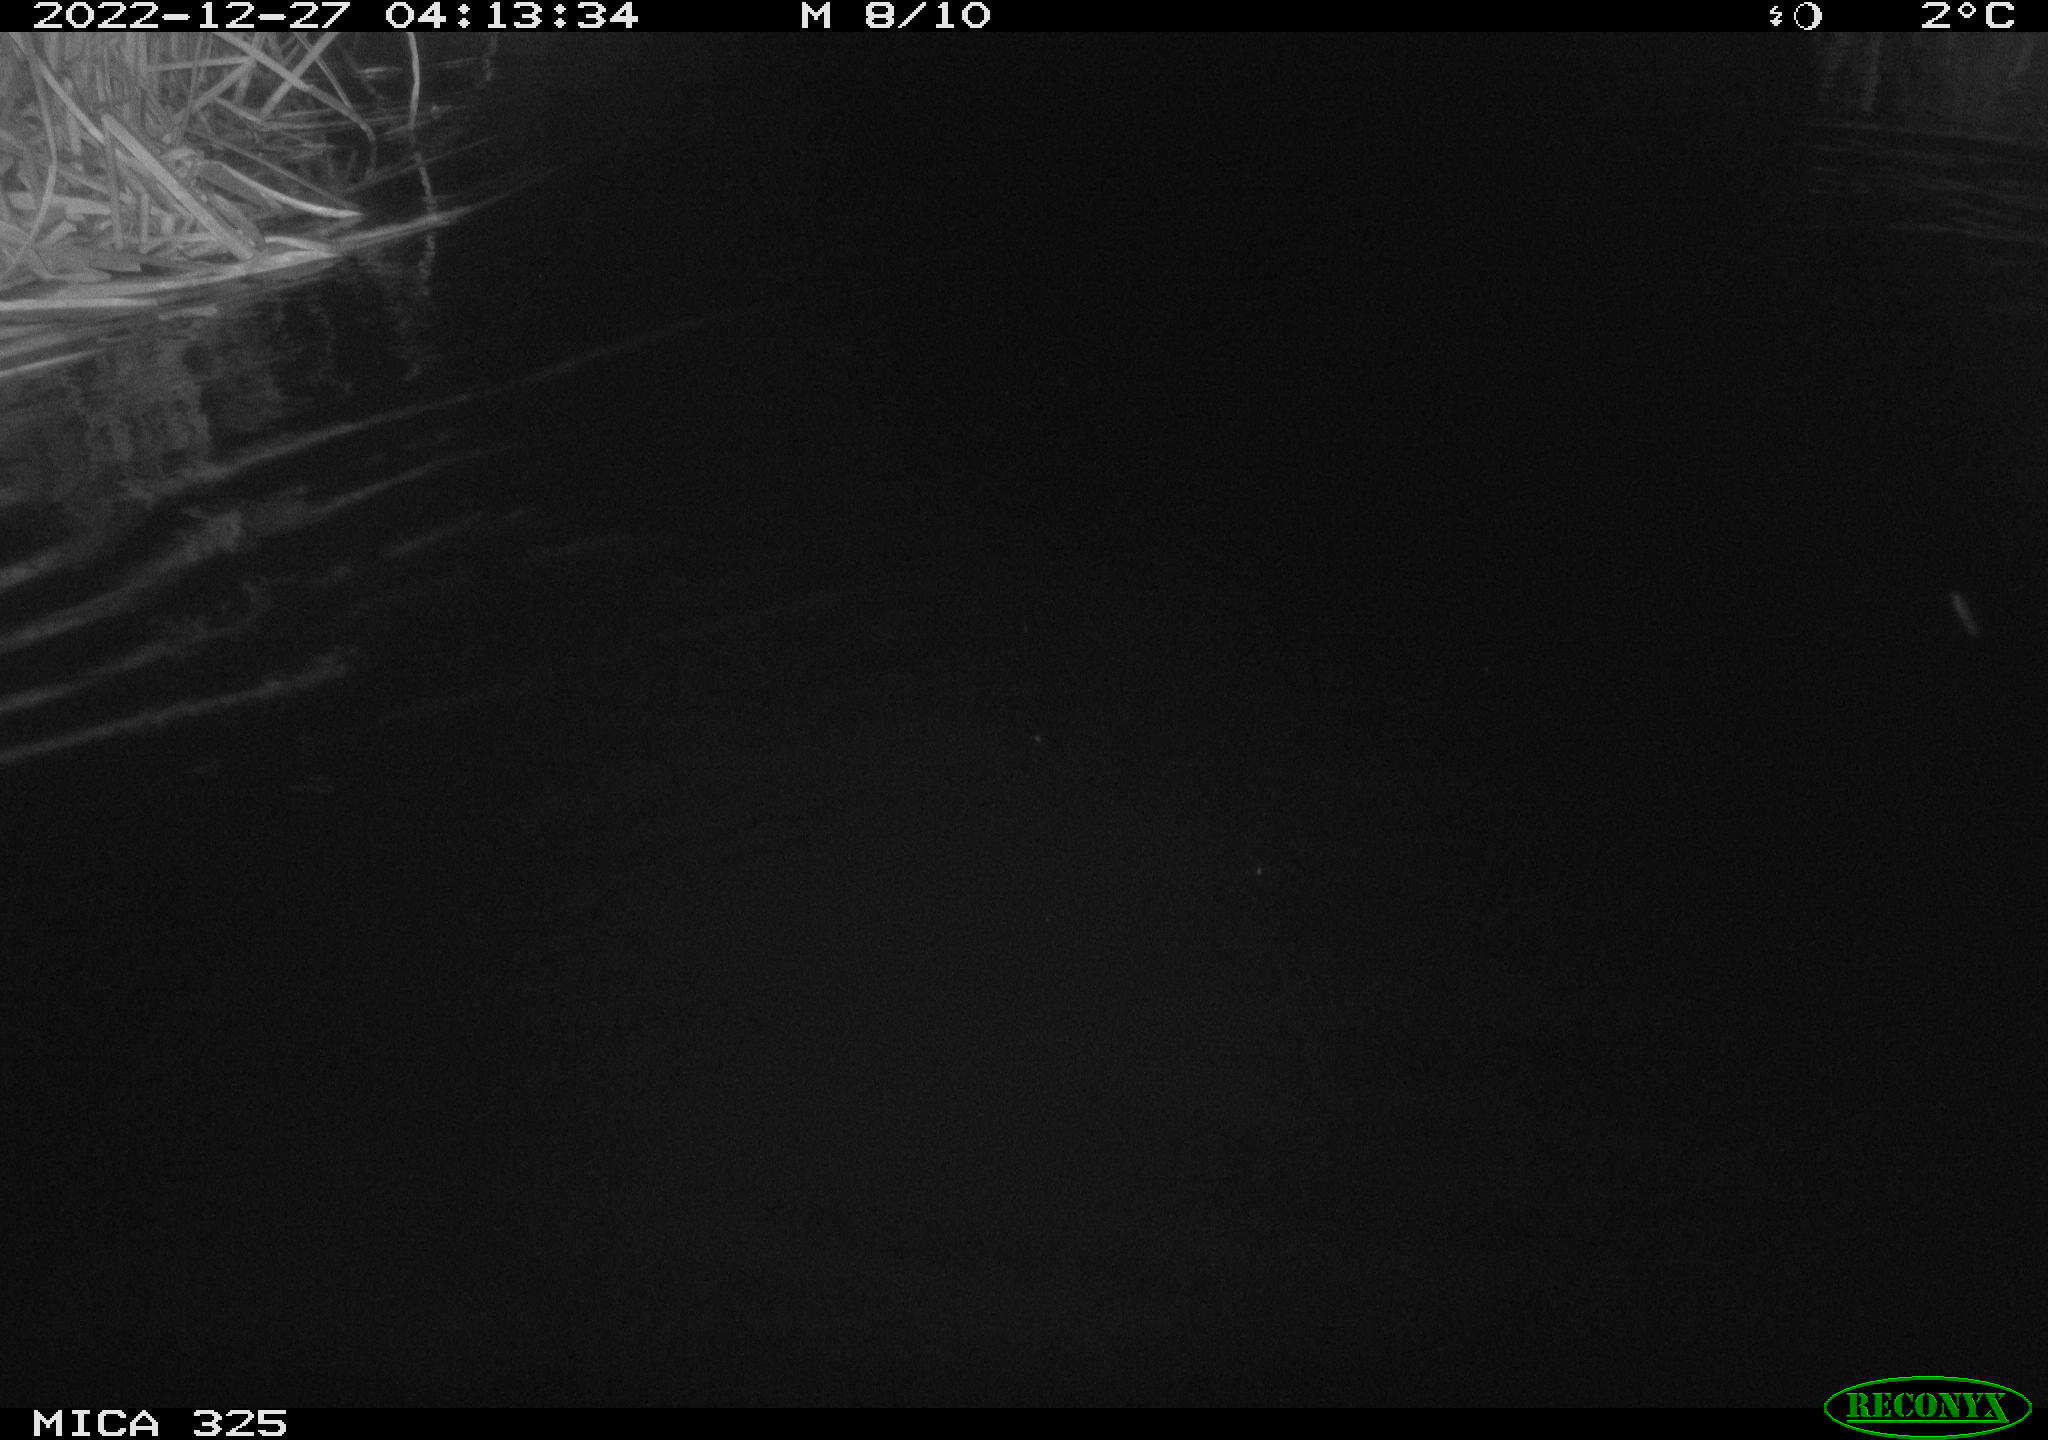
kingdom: Animalia
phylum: Chordata
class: Mammalia
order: Rodentia
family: Cricetidae
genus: Ondatra
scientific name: Ondatra zibethicus
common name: Muskrat
